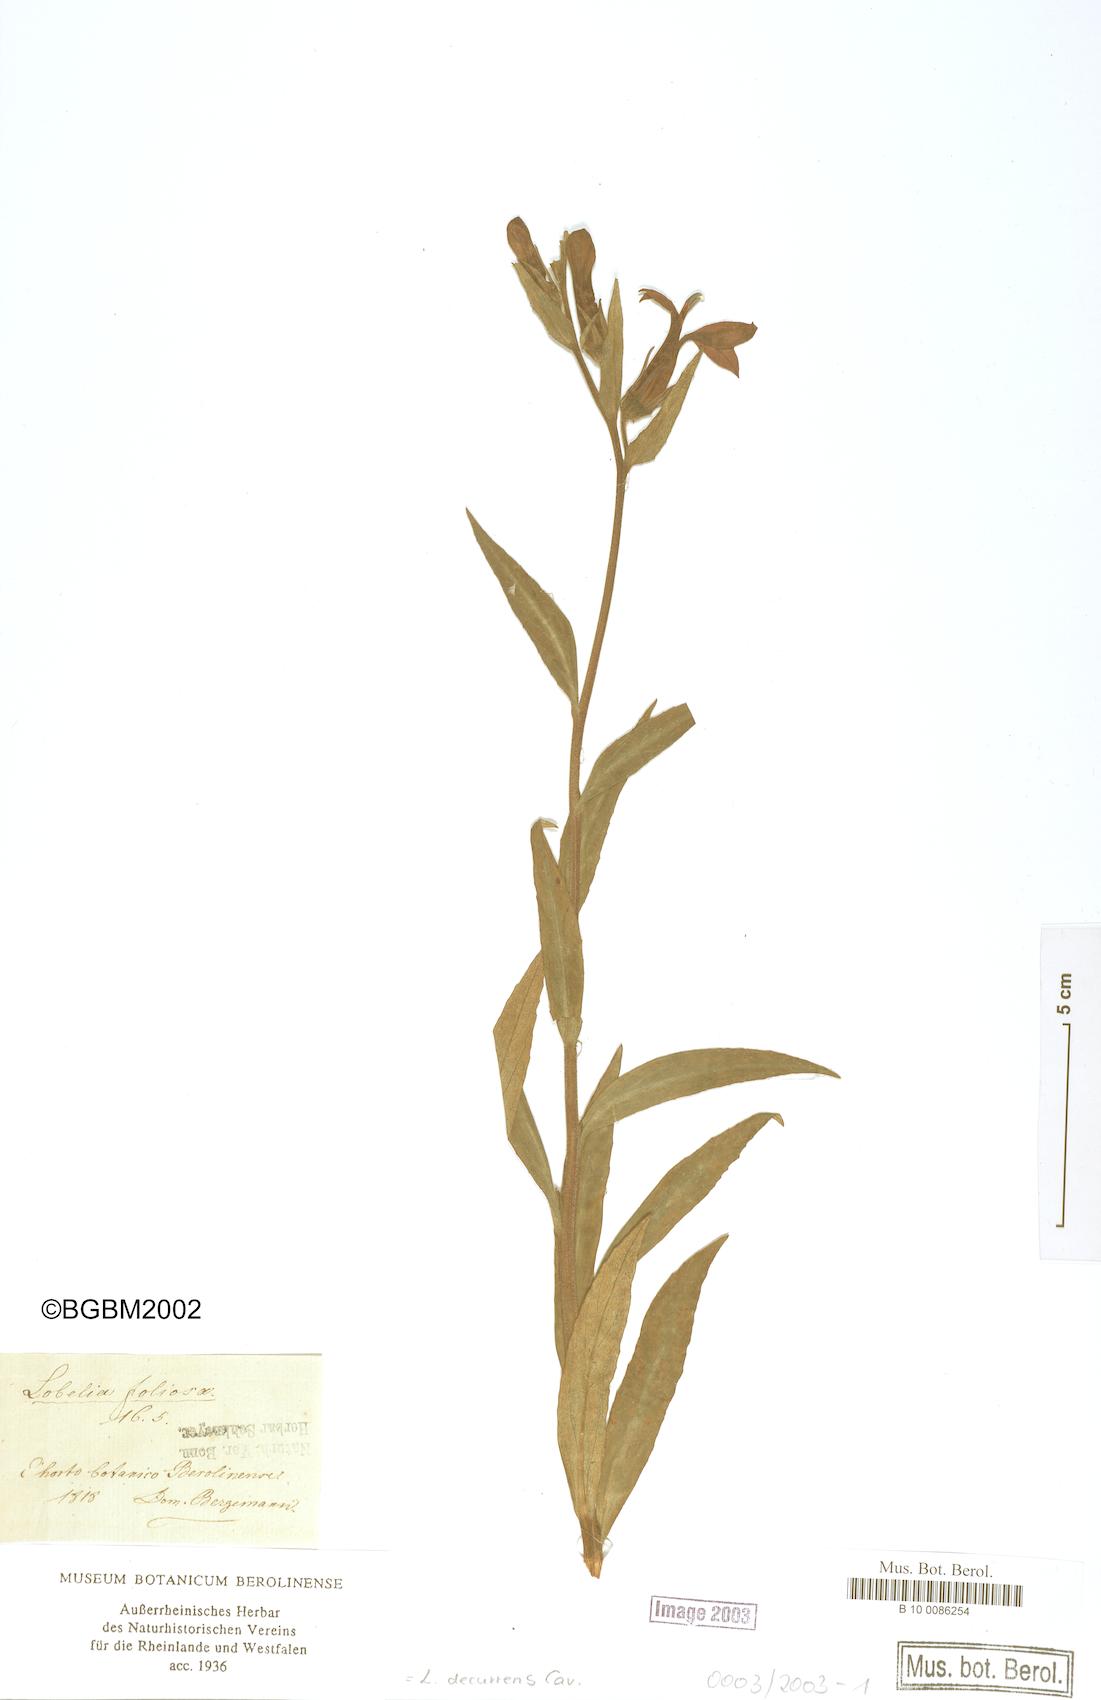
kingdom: Plantae
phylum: Tracheophyta
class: Magnoliopsida
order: Asterales
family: Campanulaceae
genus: Lobelia
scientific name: Lobelia decurrens
